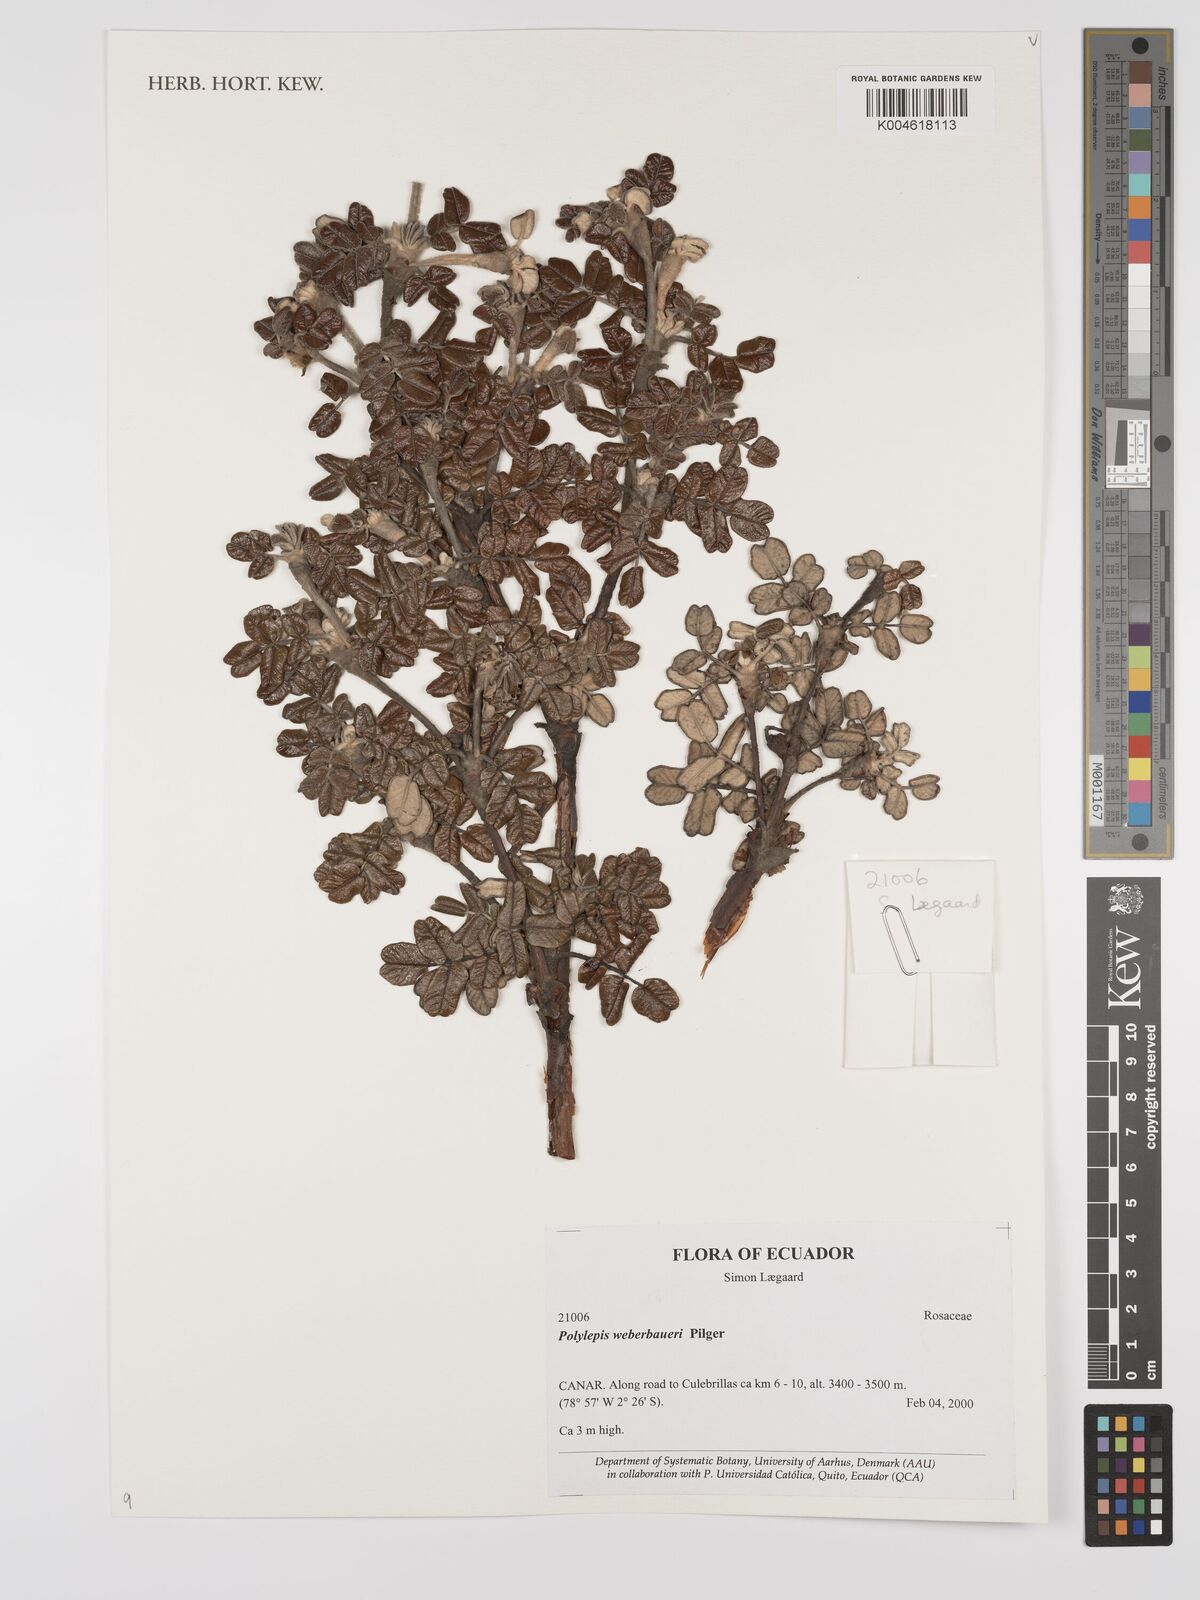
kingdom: Plantae
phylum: Tracheophyta
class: Magnoliopsida
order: Rosales
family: Rosaceae
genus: Polylepis
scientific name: Polylepis weberbaueri
